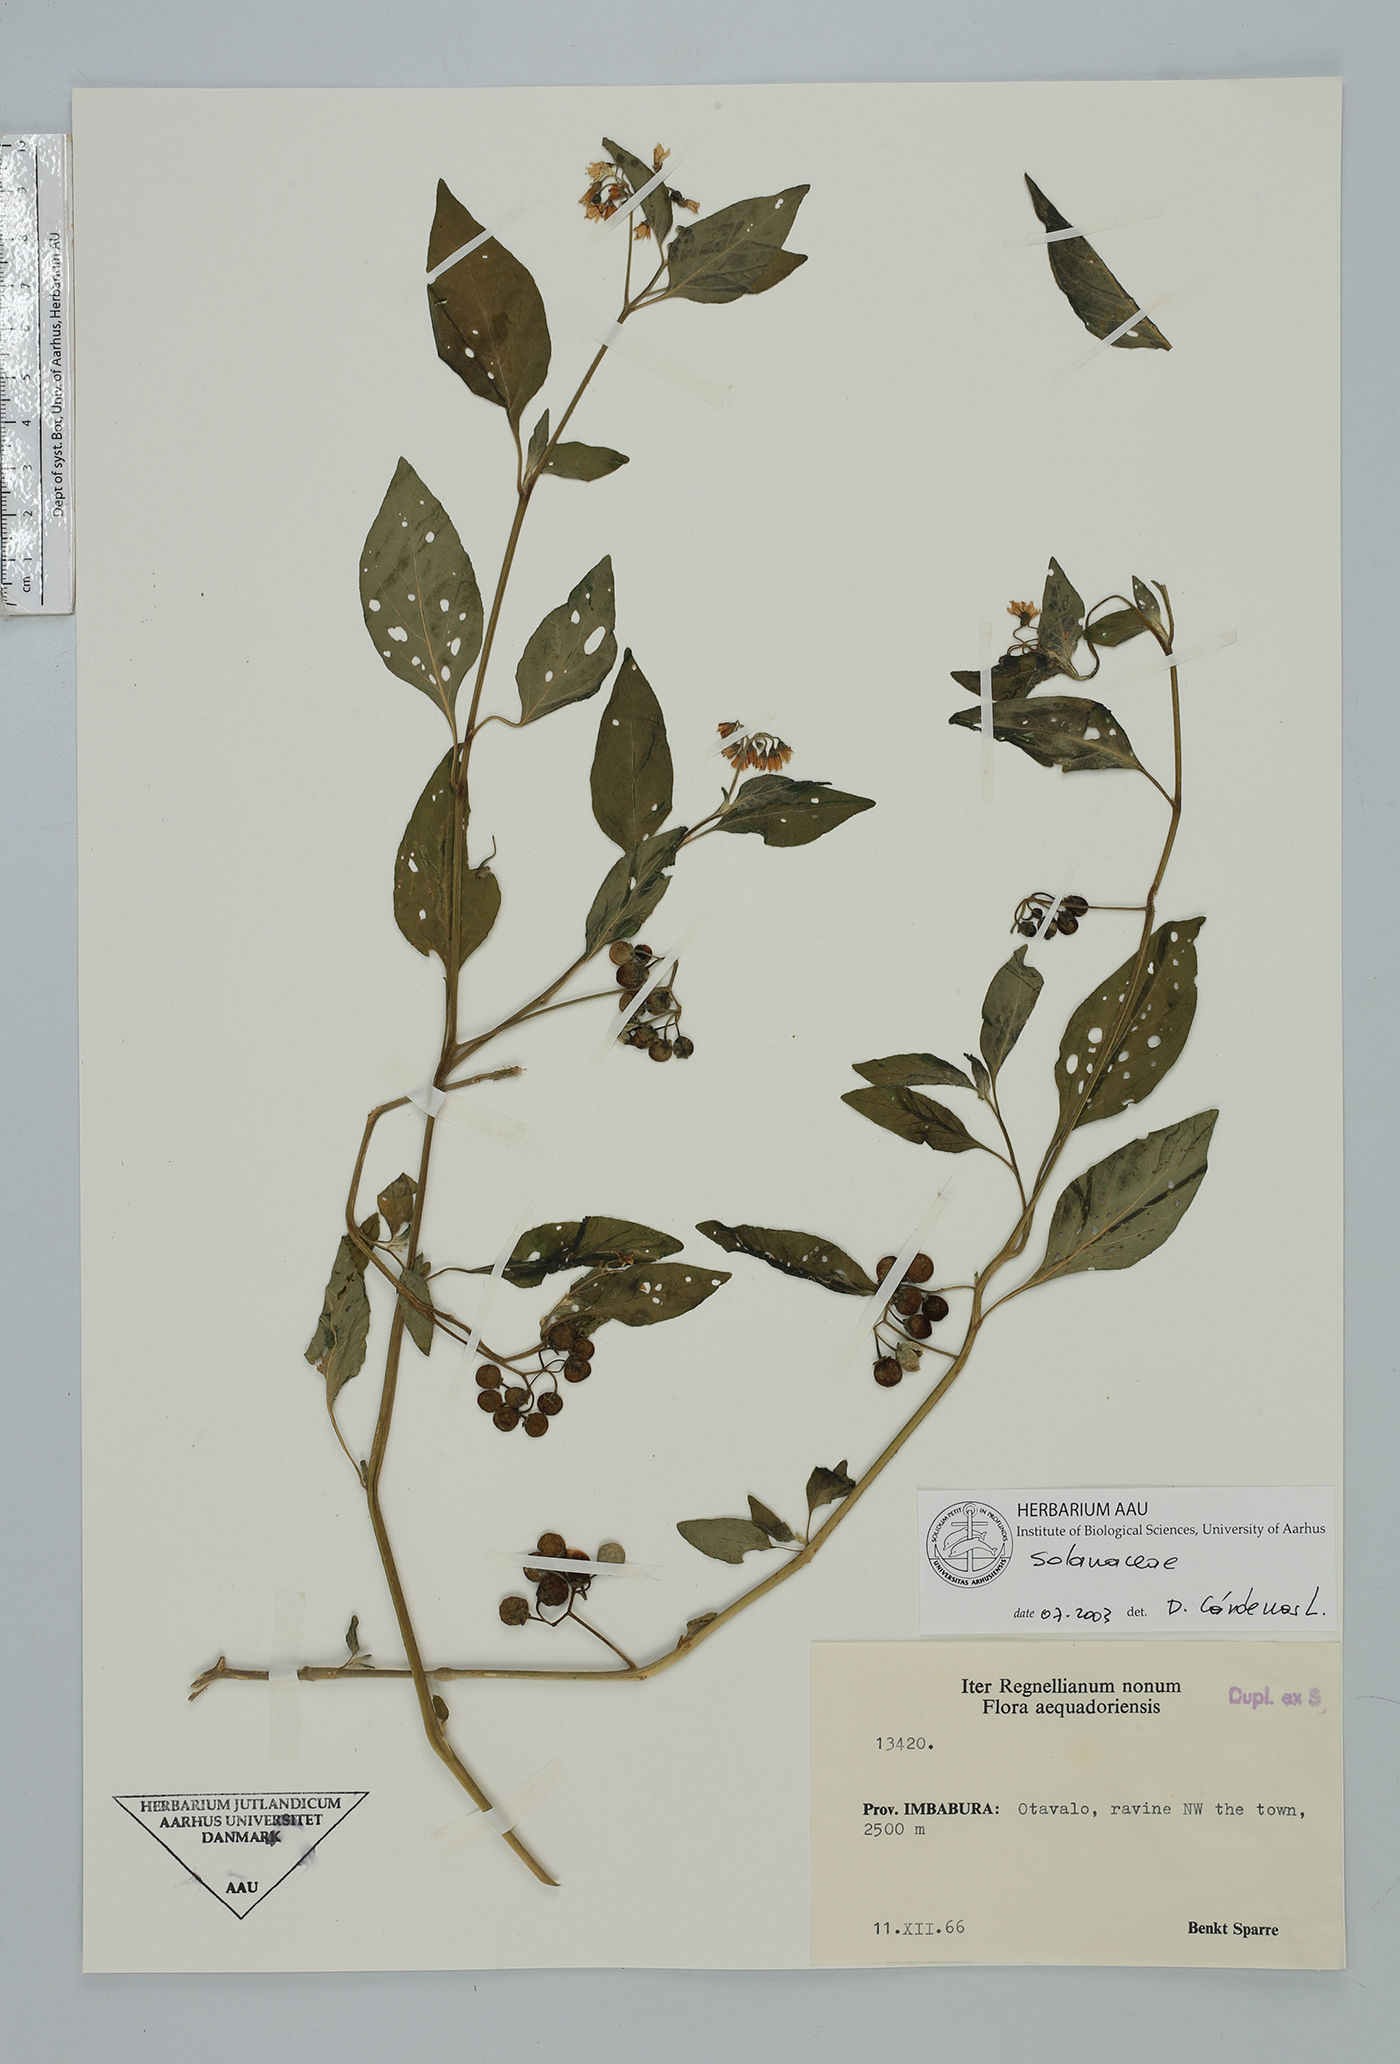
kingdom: Plantae
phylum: Tracheophyta
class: Magnoliopsida
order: Solanales
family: Solanaceae
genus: Solanum
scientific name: Solanum interandinum
